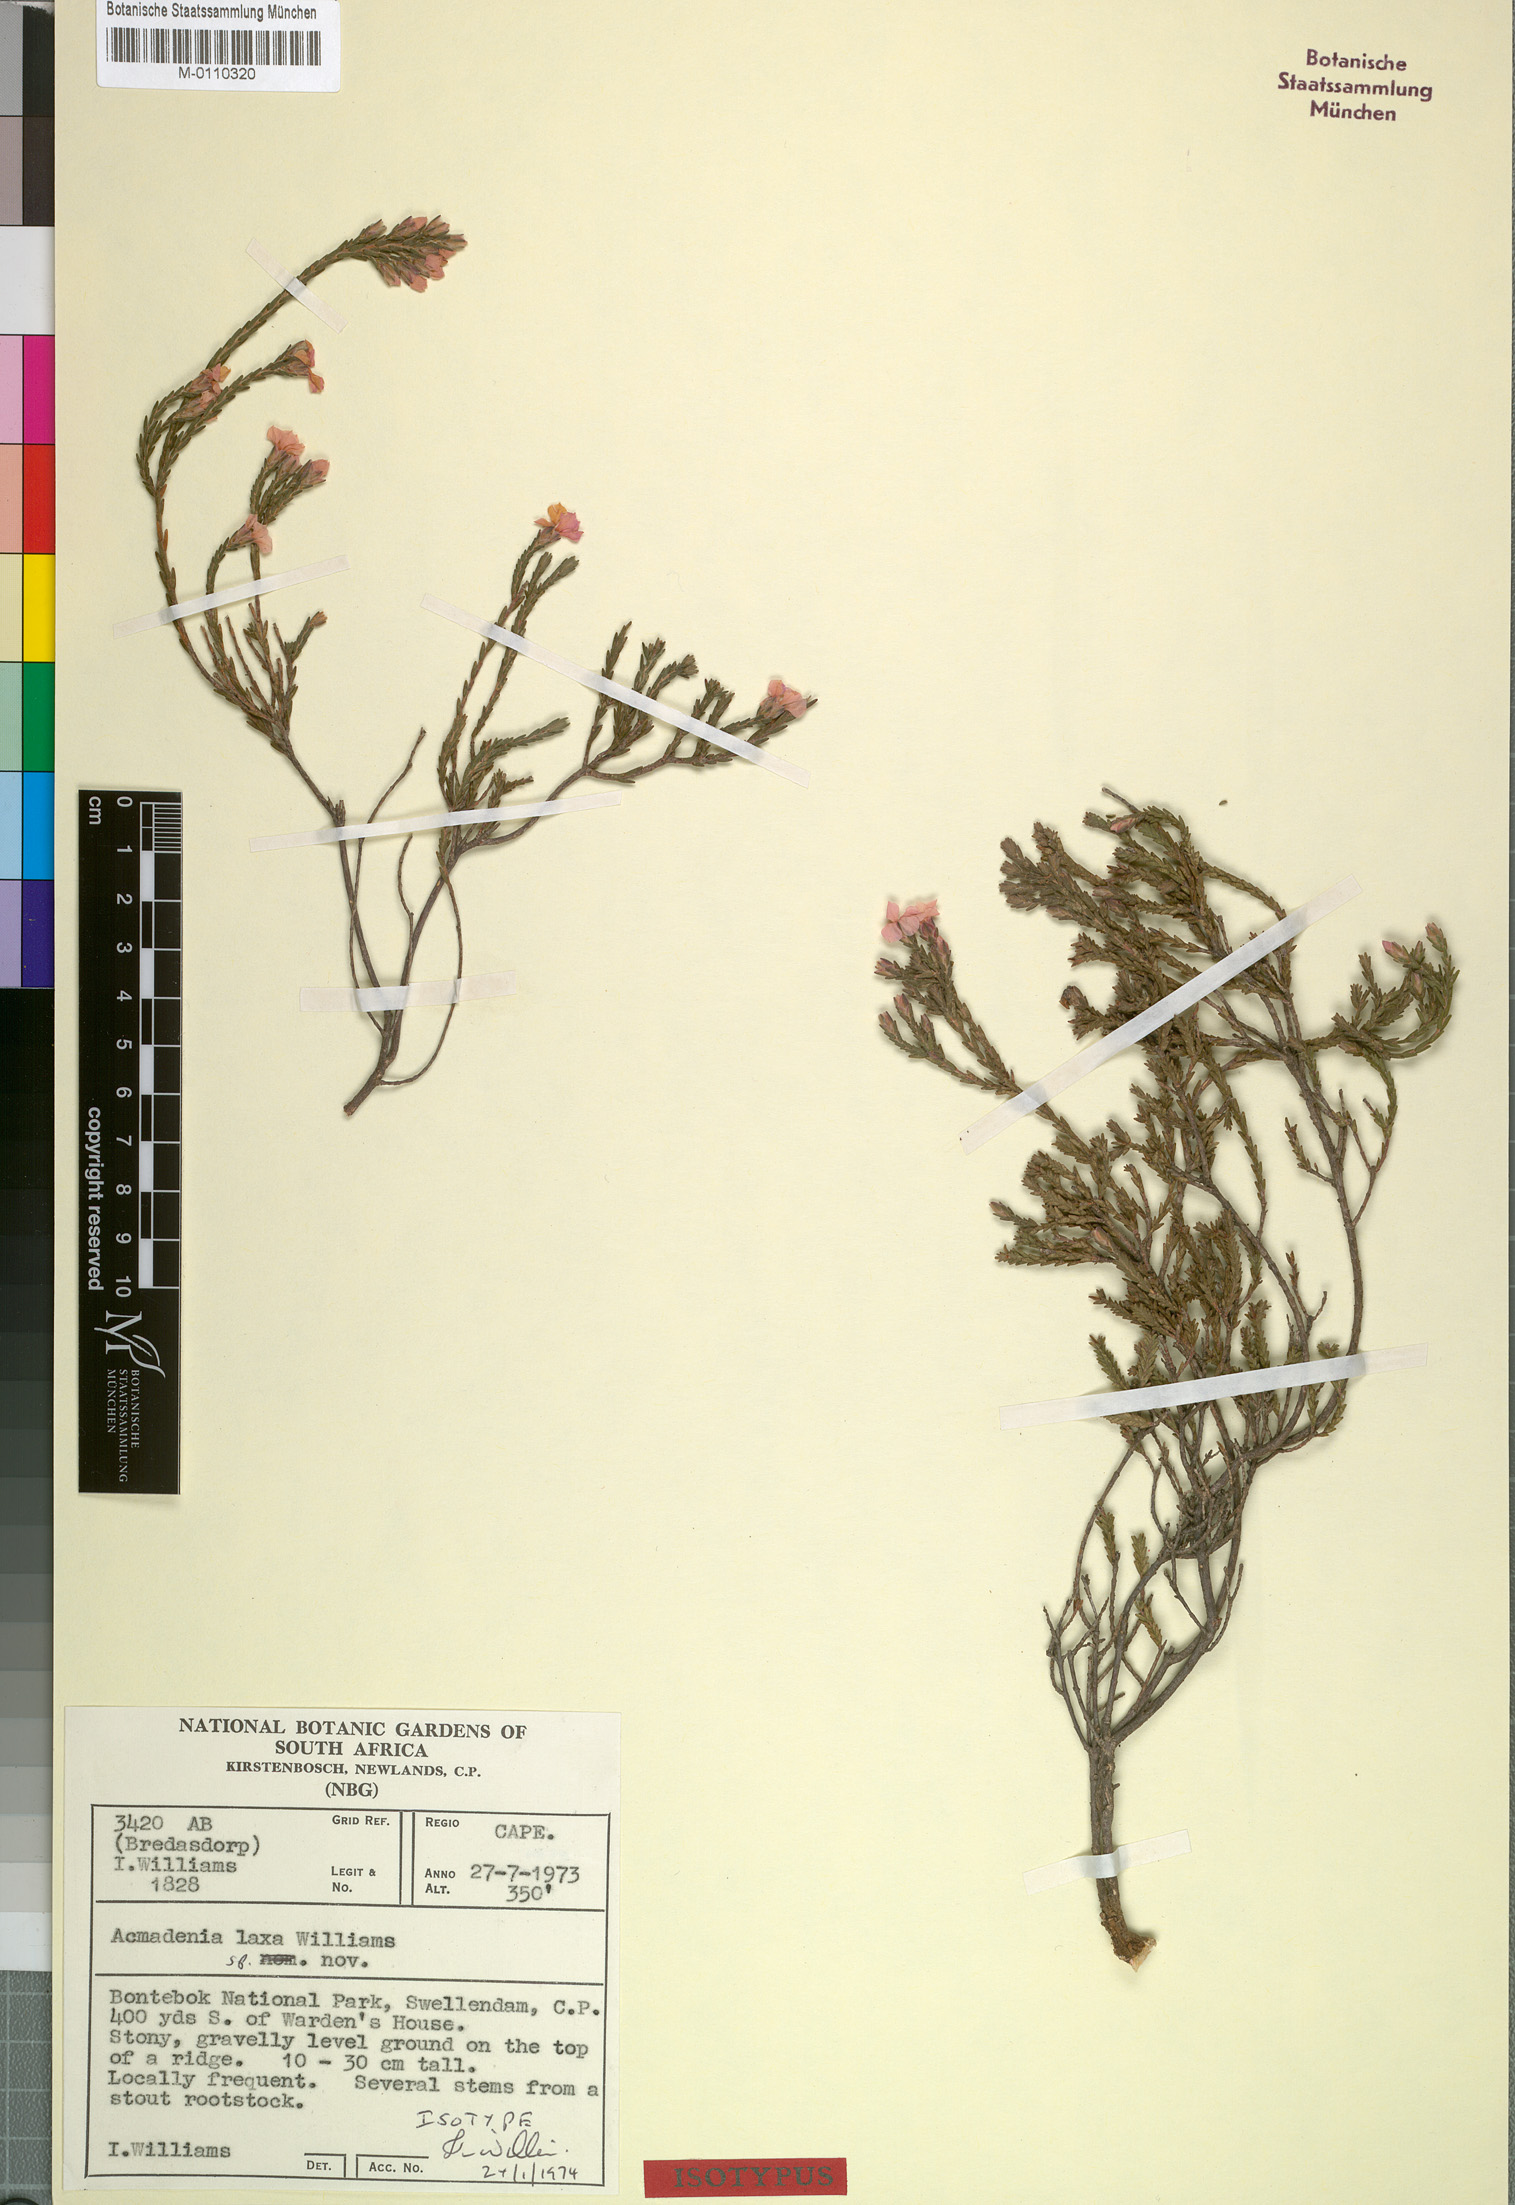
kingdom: Plantae
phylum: Tracheophyta
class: Magnoliopsida
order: Sapindales
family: Rutaceae
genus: Acmadenia
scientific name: Acmadenia laxa
